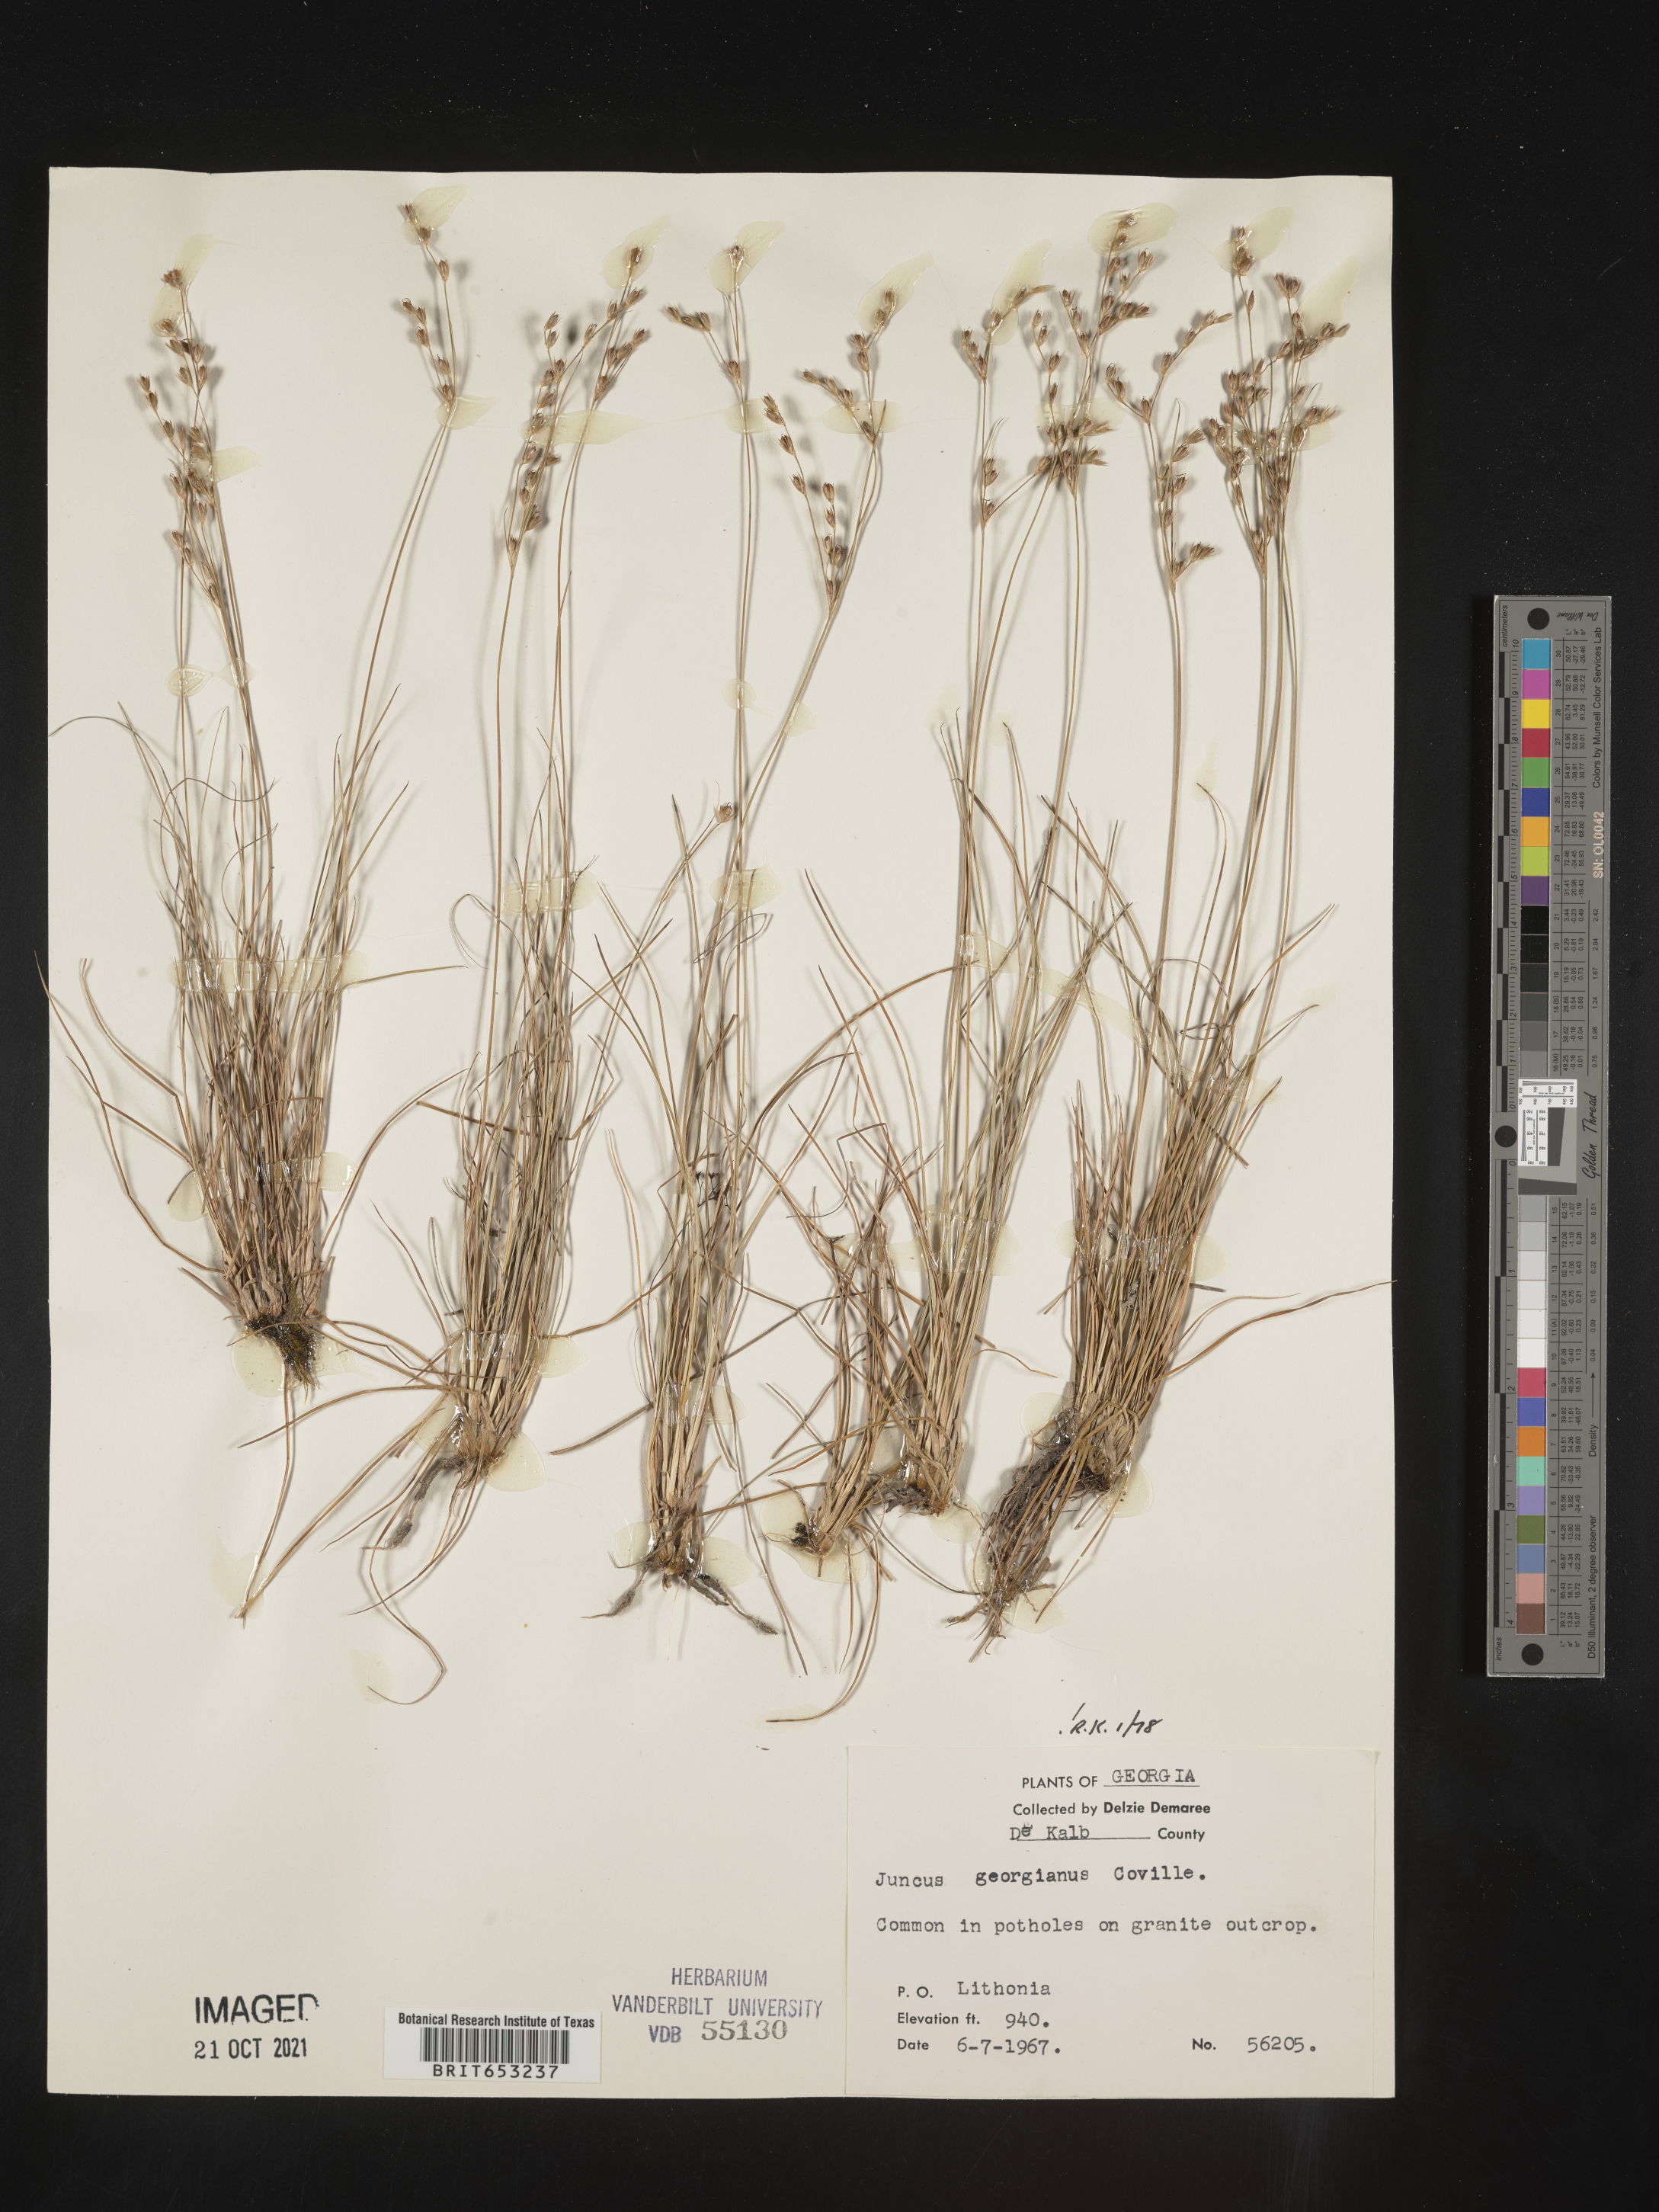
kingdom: Plantae
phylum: Tracheophyta
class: Liliopsida
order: Poales
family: Juncaceae
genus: Juncus
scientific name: Juncus georgianus
